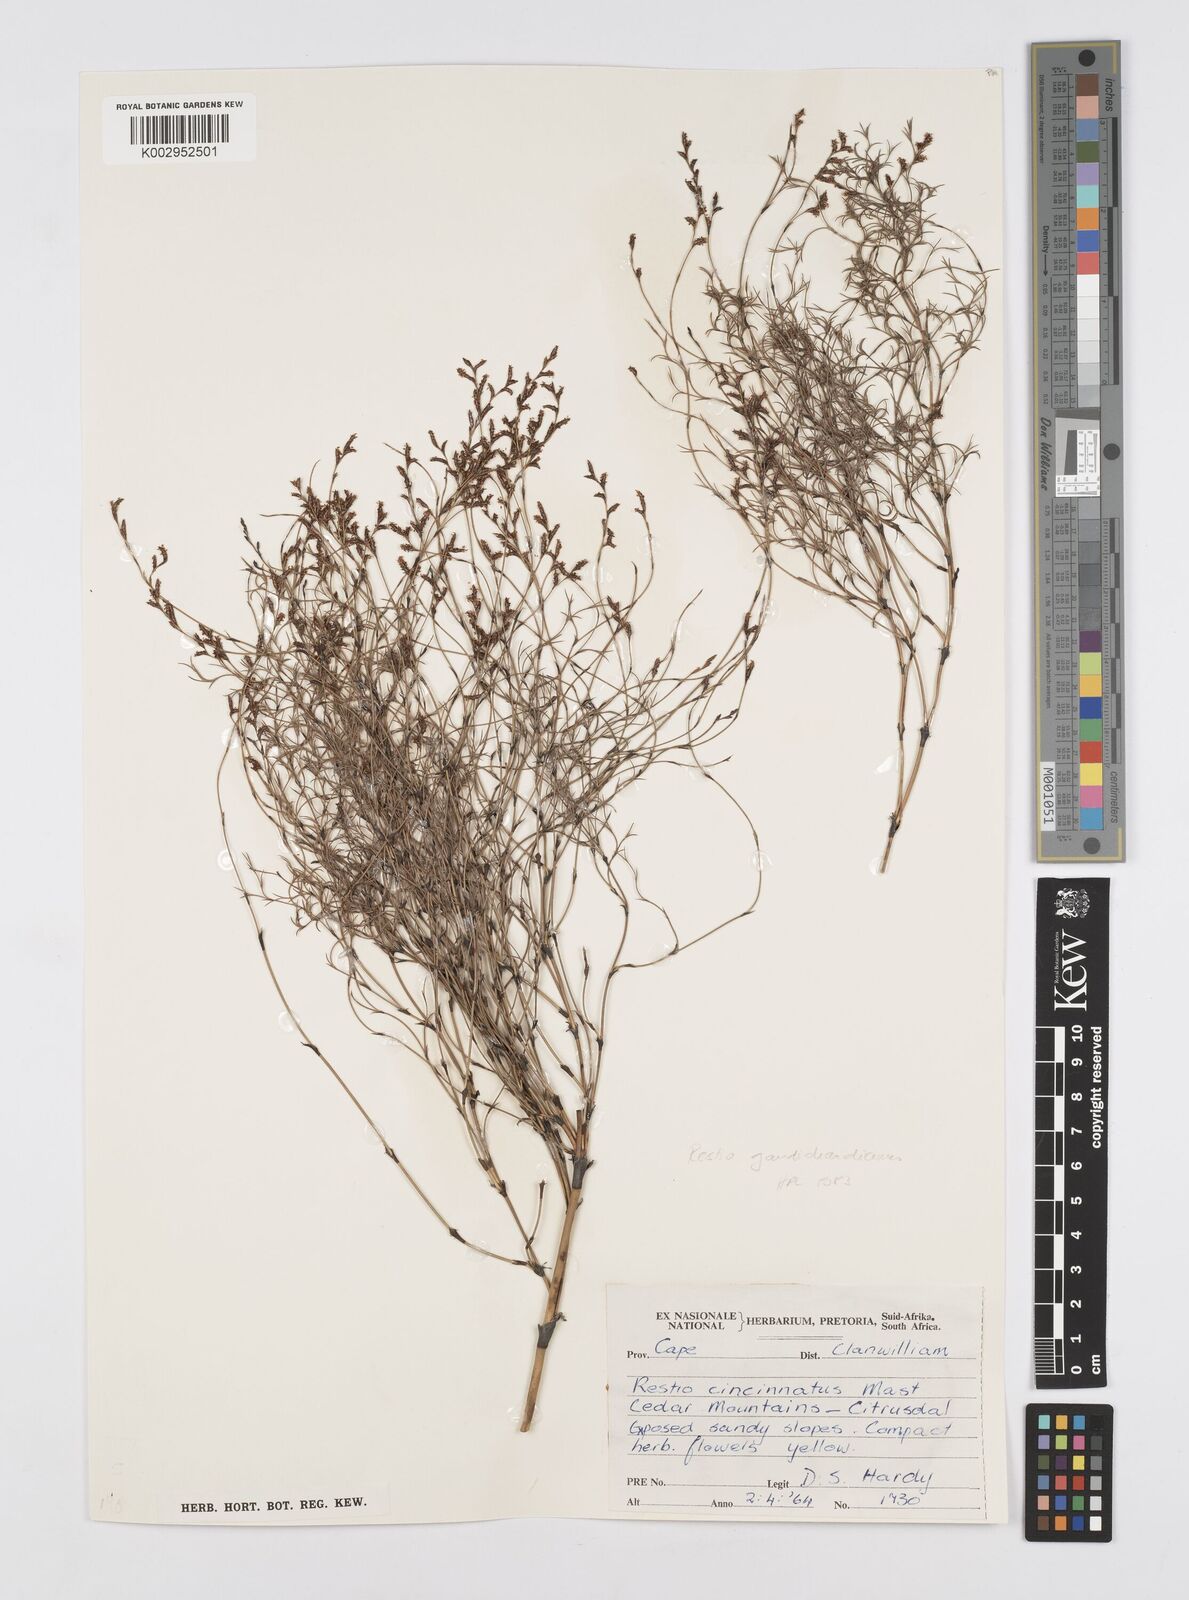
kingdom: Plantae
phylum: Tracheophyta
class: Liliopsida
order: Poales
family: Restionaceae
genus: Restio
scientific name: Restio gaudichaudianus
